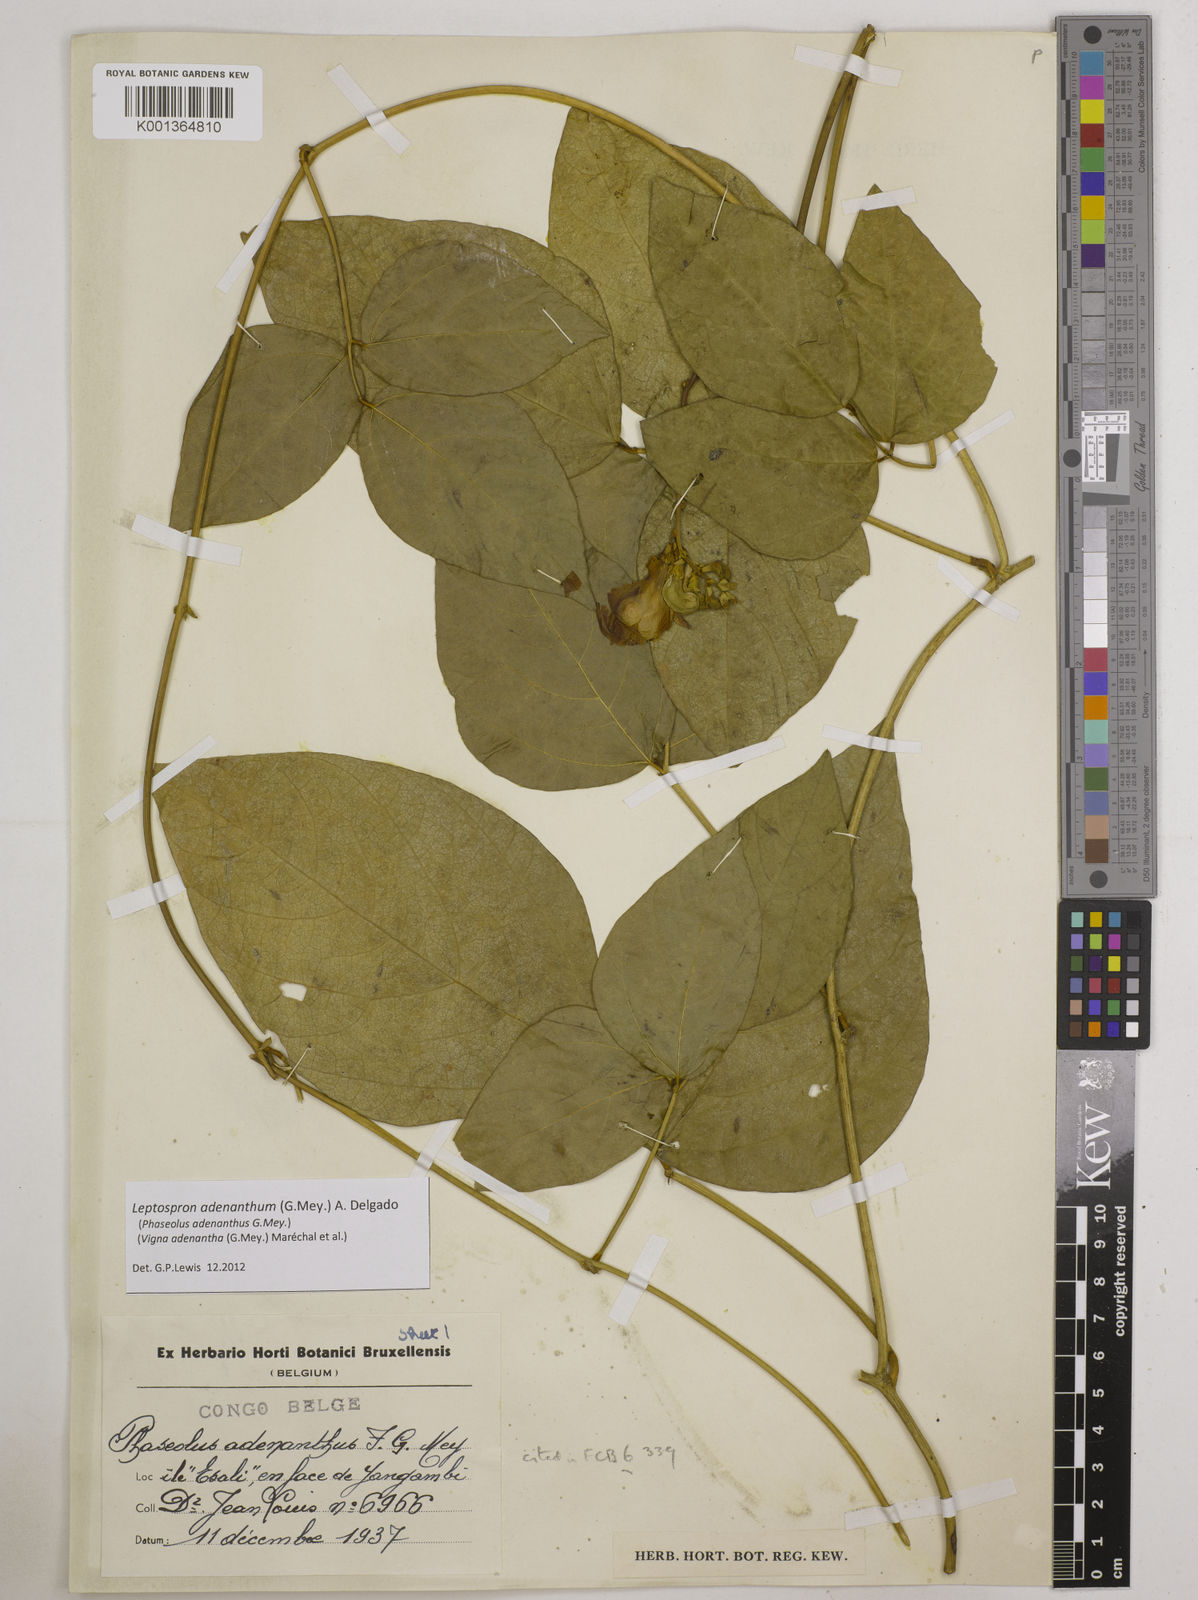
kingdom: Plantae
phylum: Tracheophyta
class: Magnoliopsida
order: Fabales
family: Fabaceae
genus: Leptospron
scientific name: Leptospron adenanthum
